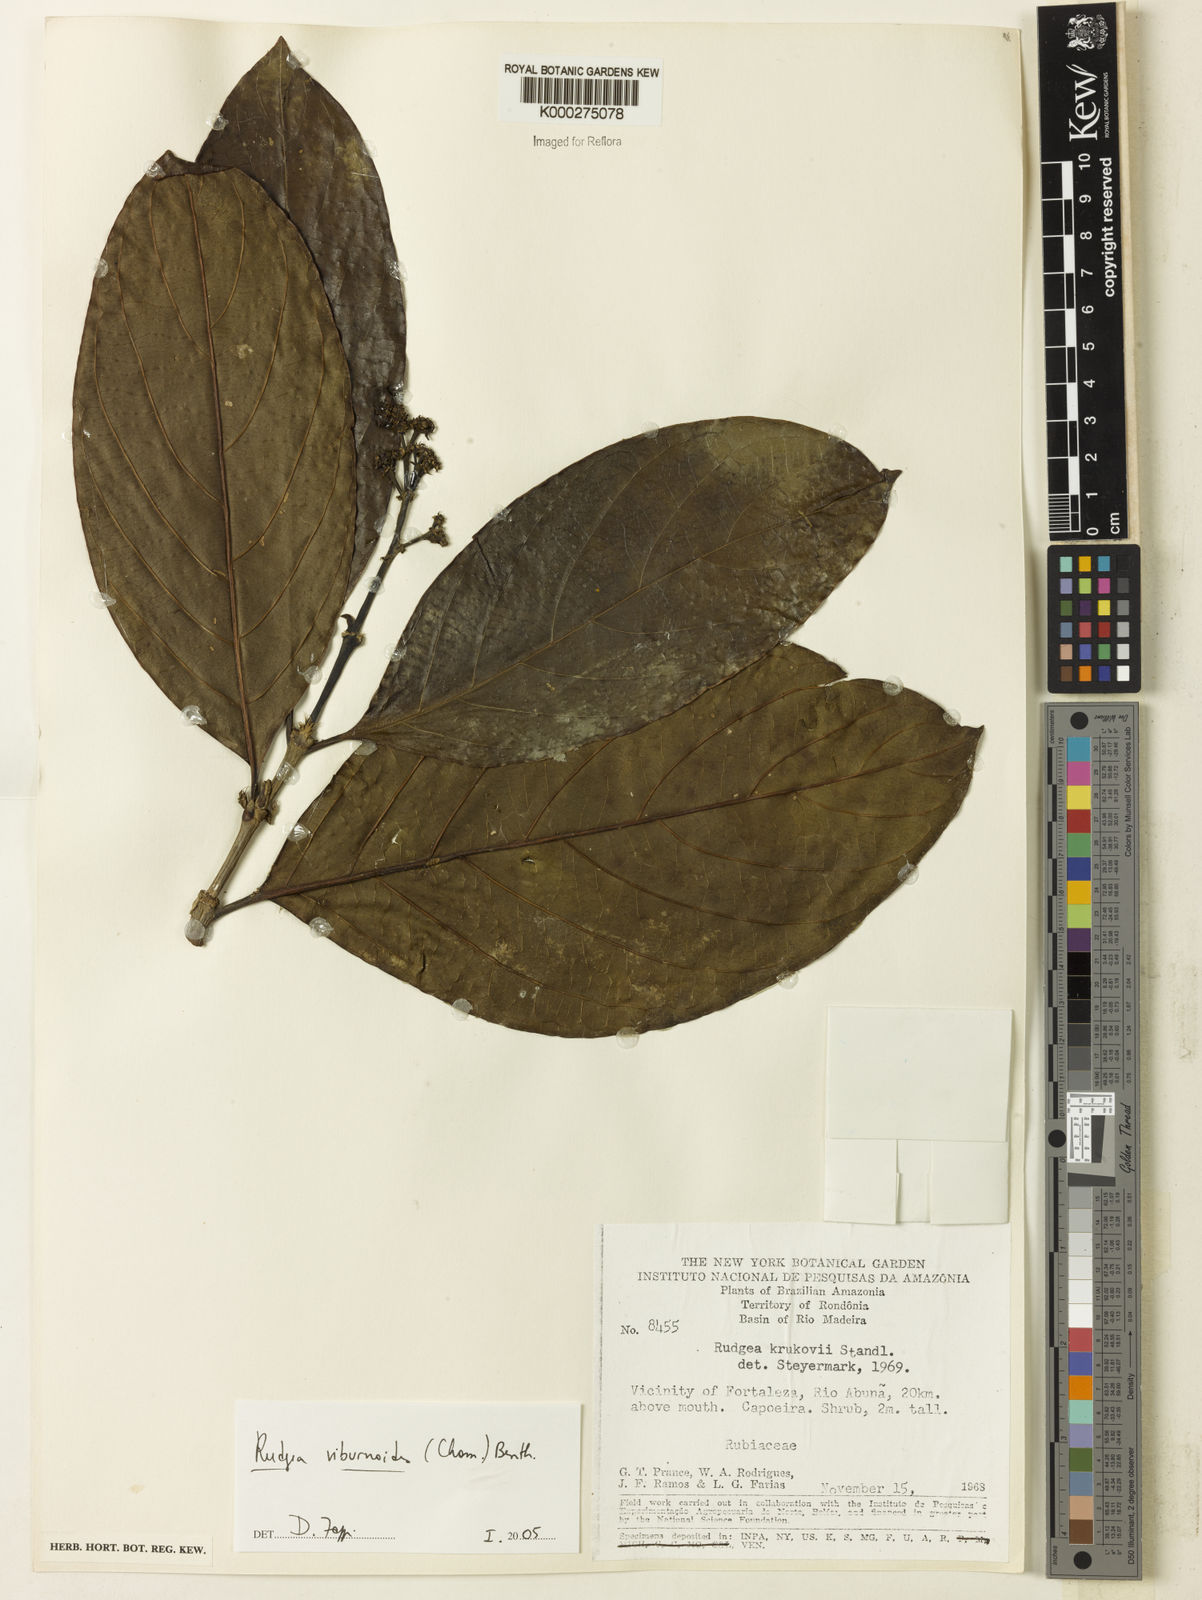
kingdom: Plantae
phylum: Tracheophyta
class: Magnoliopsida
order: Gentianales
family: Rubiaceae
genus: Rudgea
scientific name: Rudgea viburnoides
